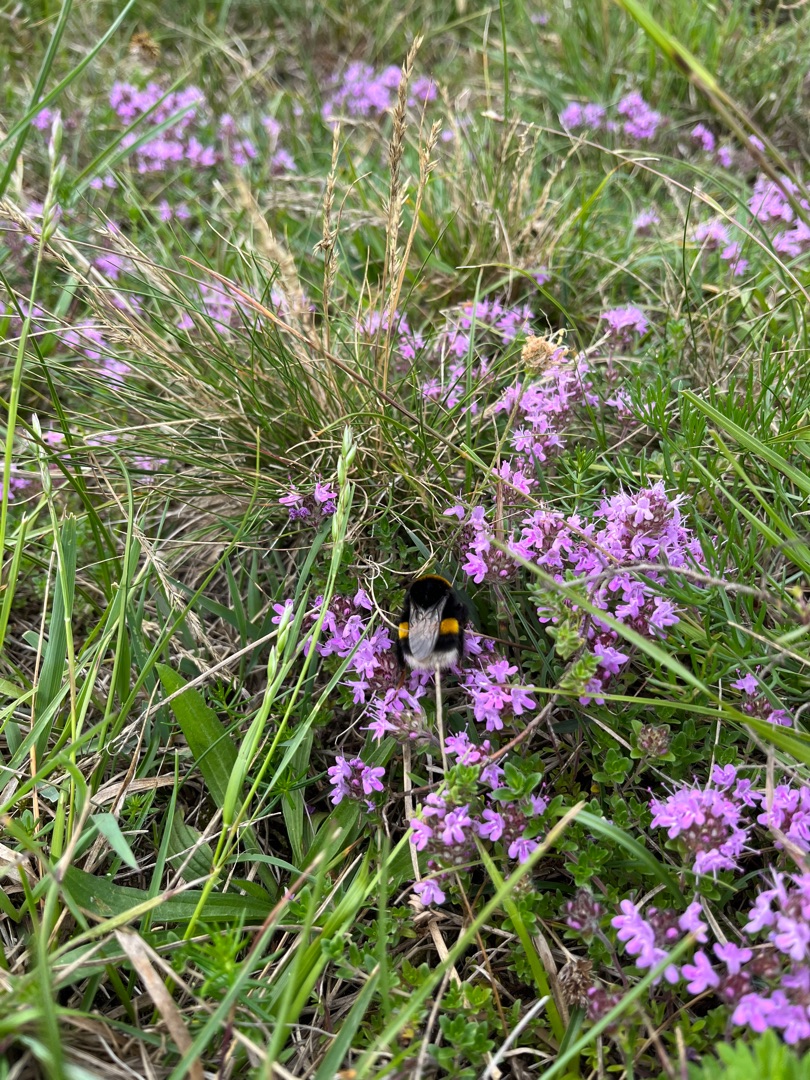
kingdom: Plantae
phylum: Tracheophyta
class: Magnoliopsida
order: Lamiales
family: Lamiaceae
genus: Thymus
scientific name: Thymus serpyllum
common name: Smalbladet timian
